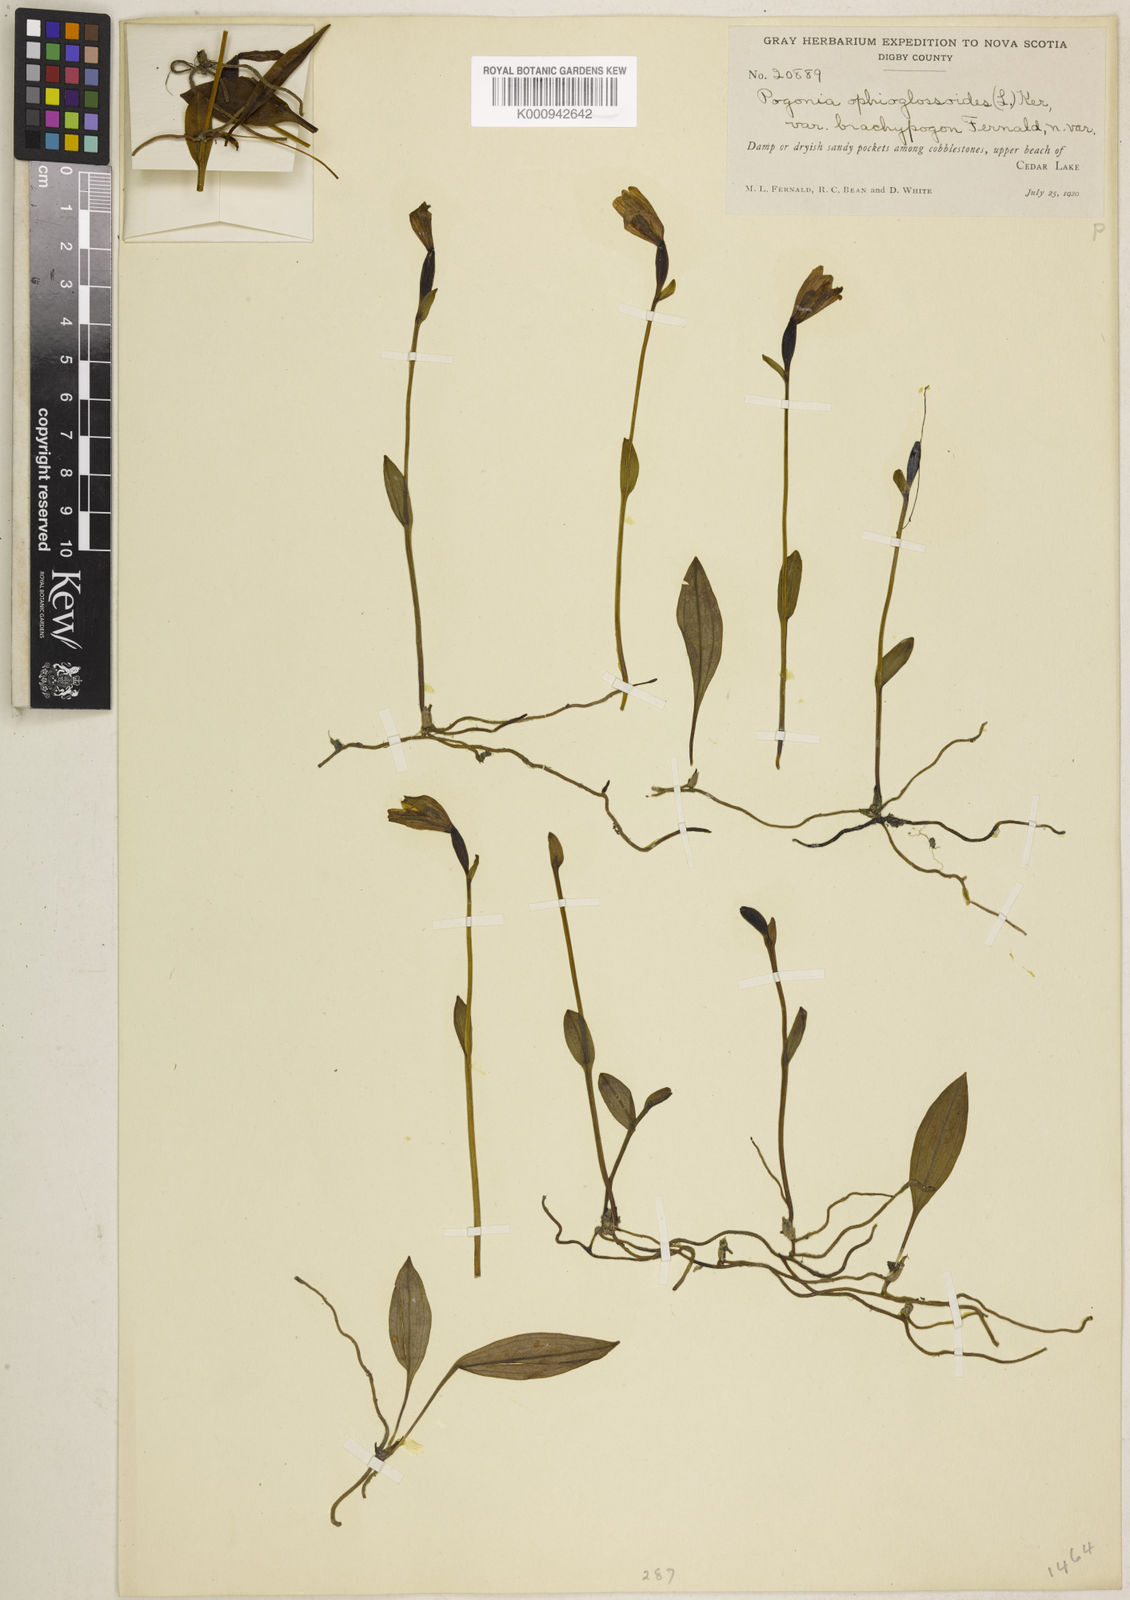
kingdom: Plantae
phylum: Tracheophyta
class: Liliopsida
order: Asparagales
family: Orchidaceae
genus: Pogonia
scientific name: Pogonia ophioglossoides
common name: Rose pogonia
